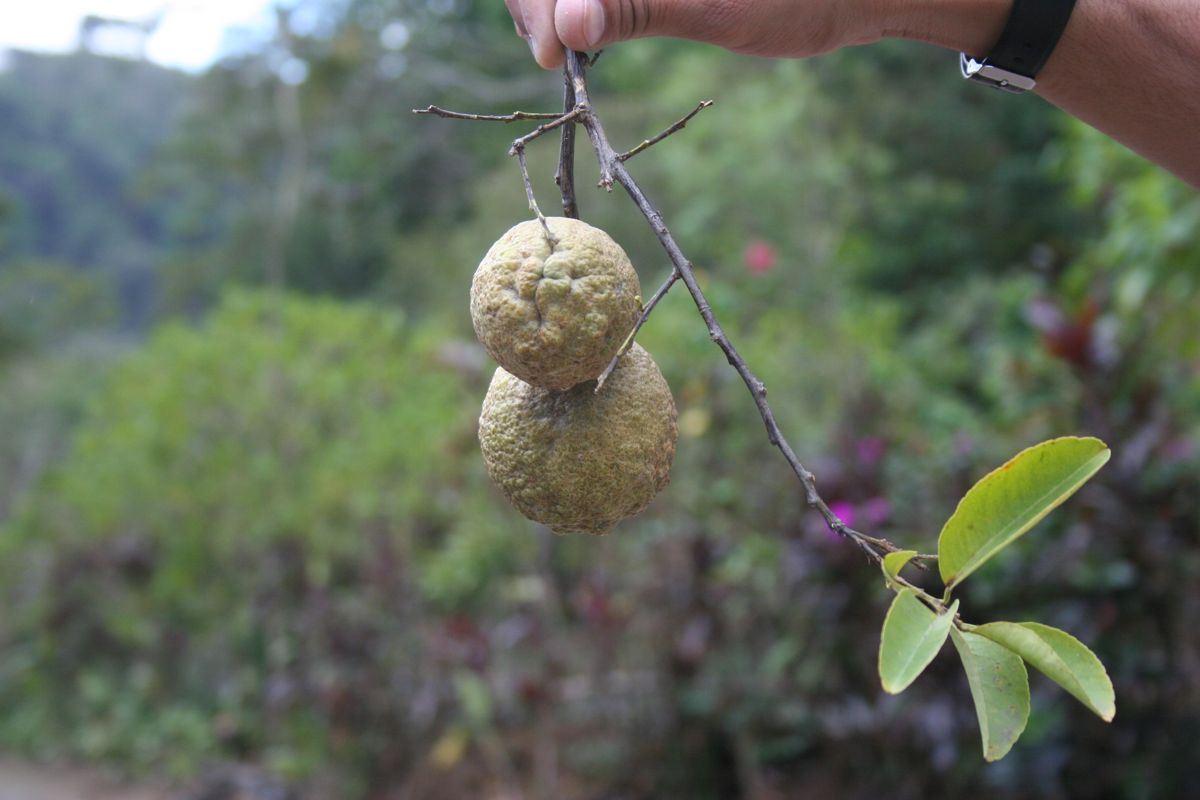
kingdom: Plantae
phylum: Tracheophyta
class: Magnoliopsida
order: Sapindales
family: Rutaceae
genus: Citrus
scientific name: Citrus medica
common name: Citron
